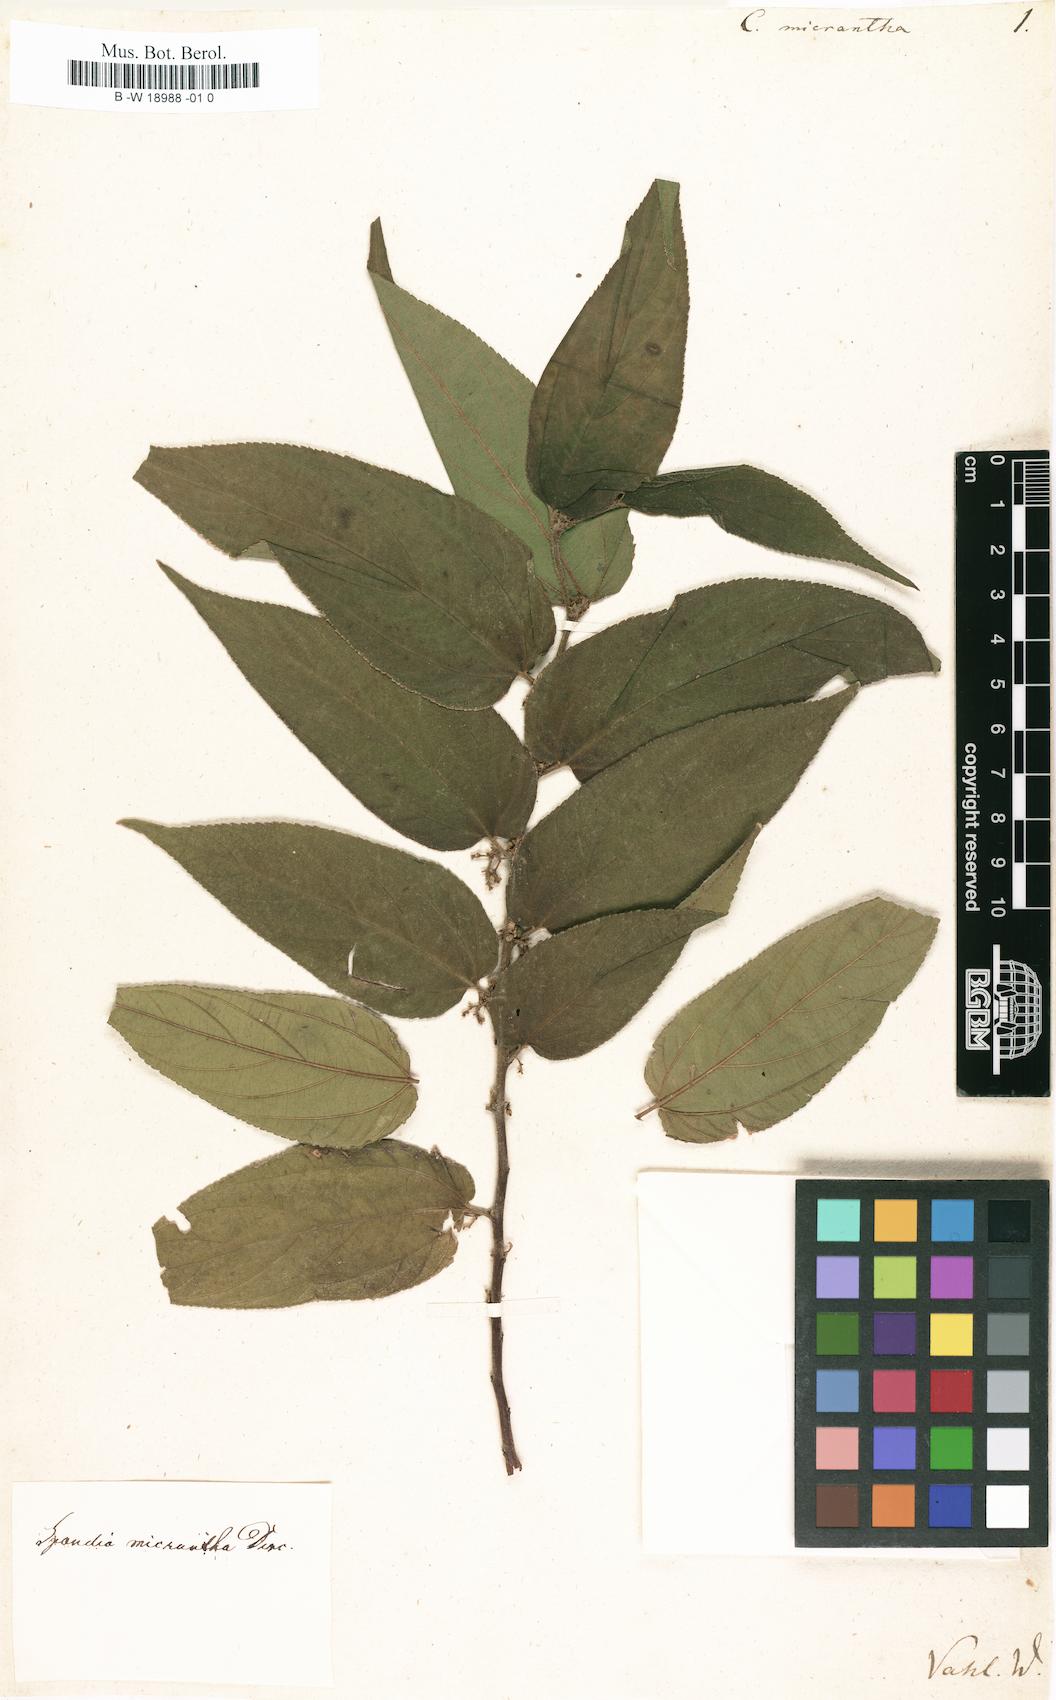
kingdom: Plantae
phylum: Tracheophyta
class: Magnoliopsida
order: Rosales
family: Cannabaceae
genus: Trema
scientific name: Trema micranthum
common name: Jamaican nettletree
